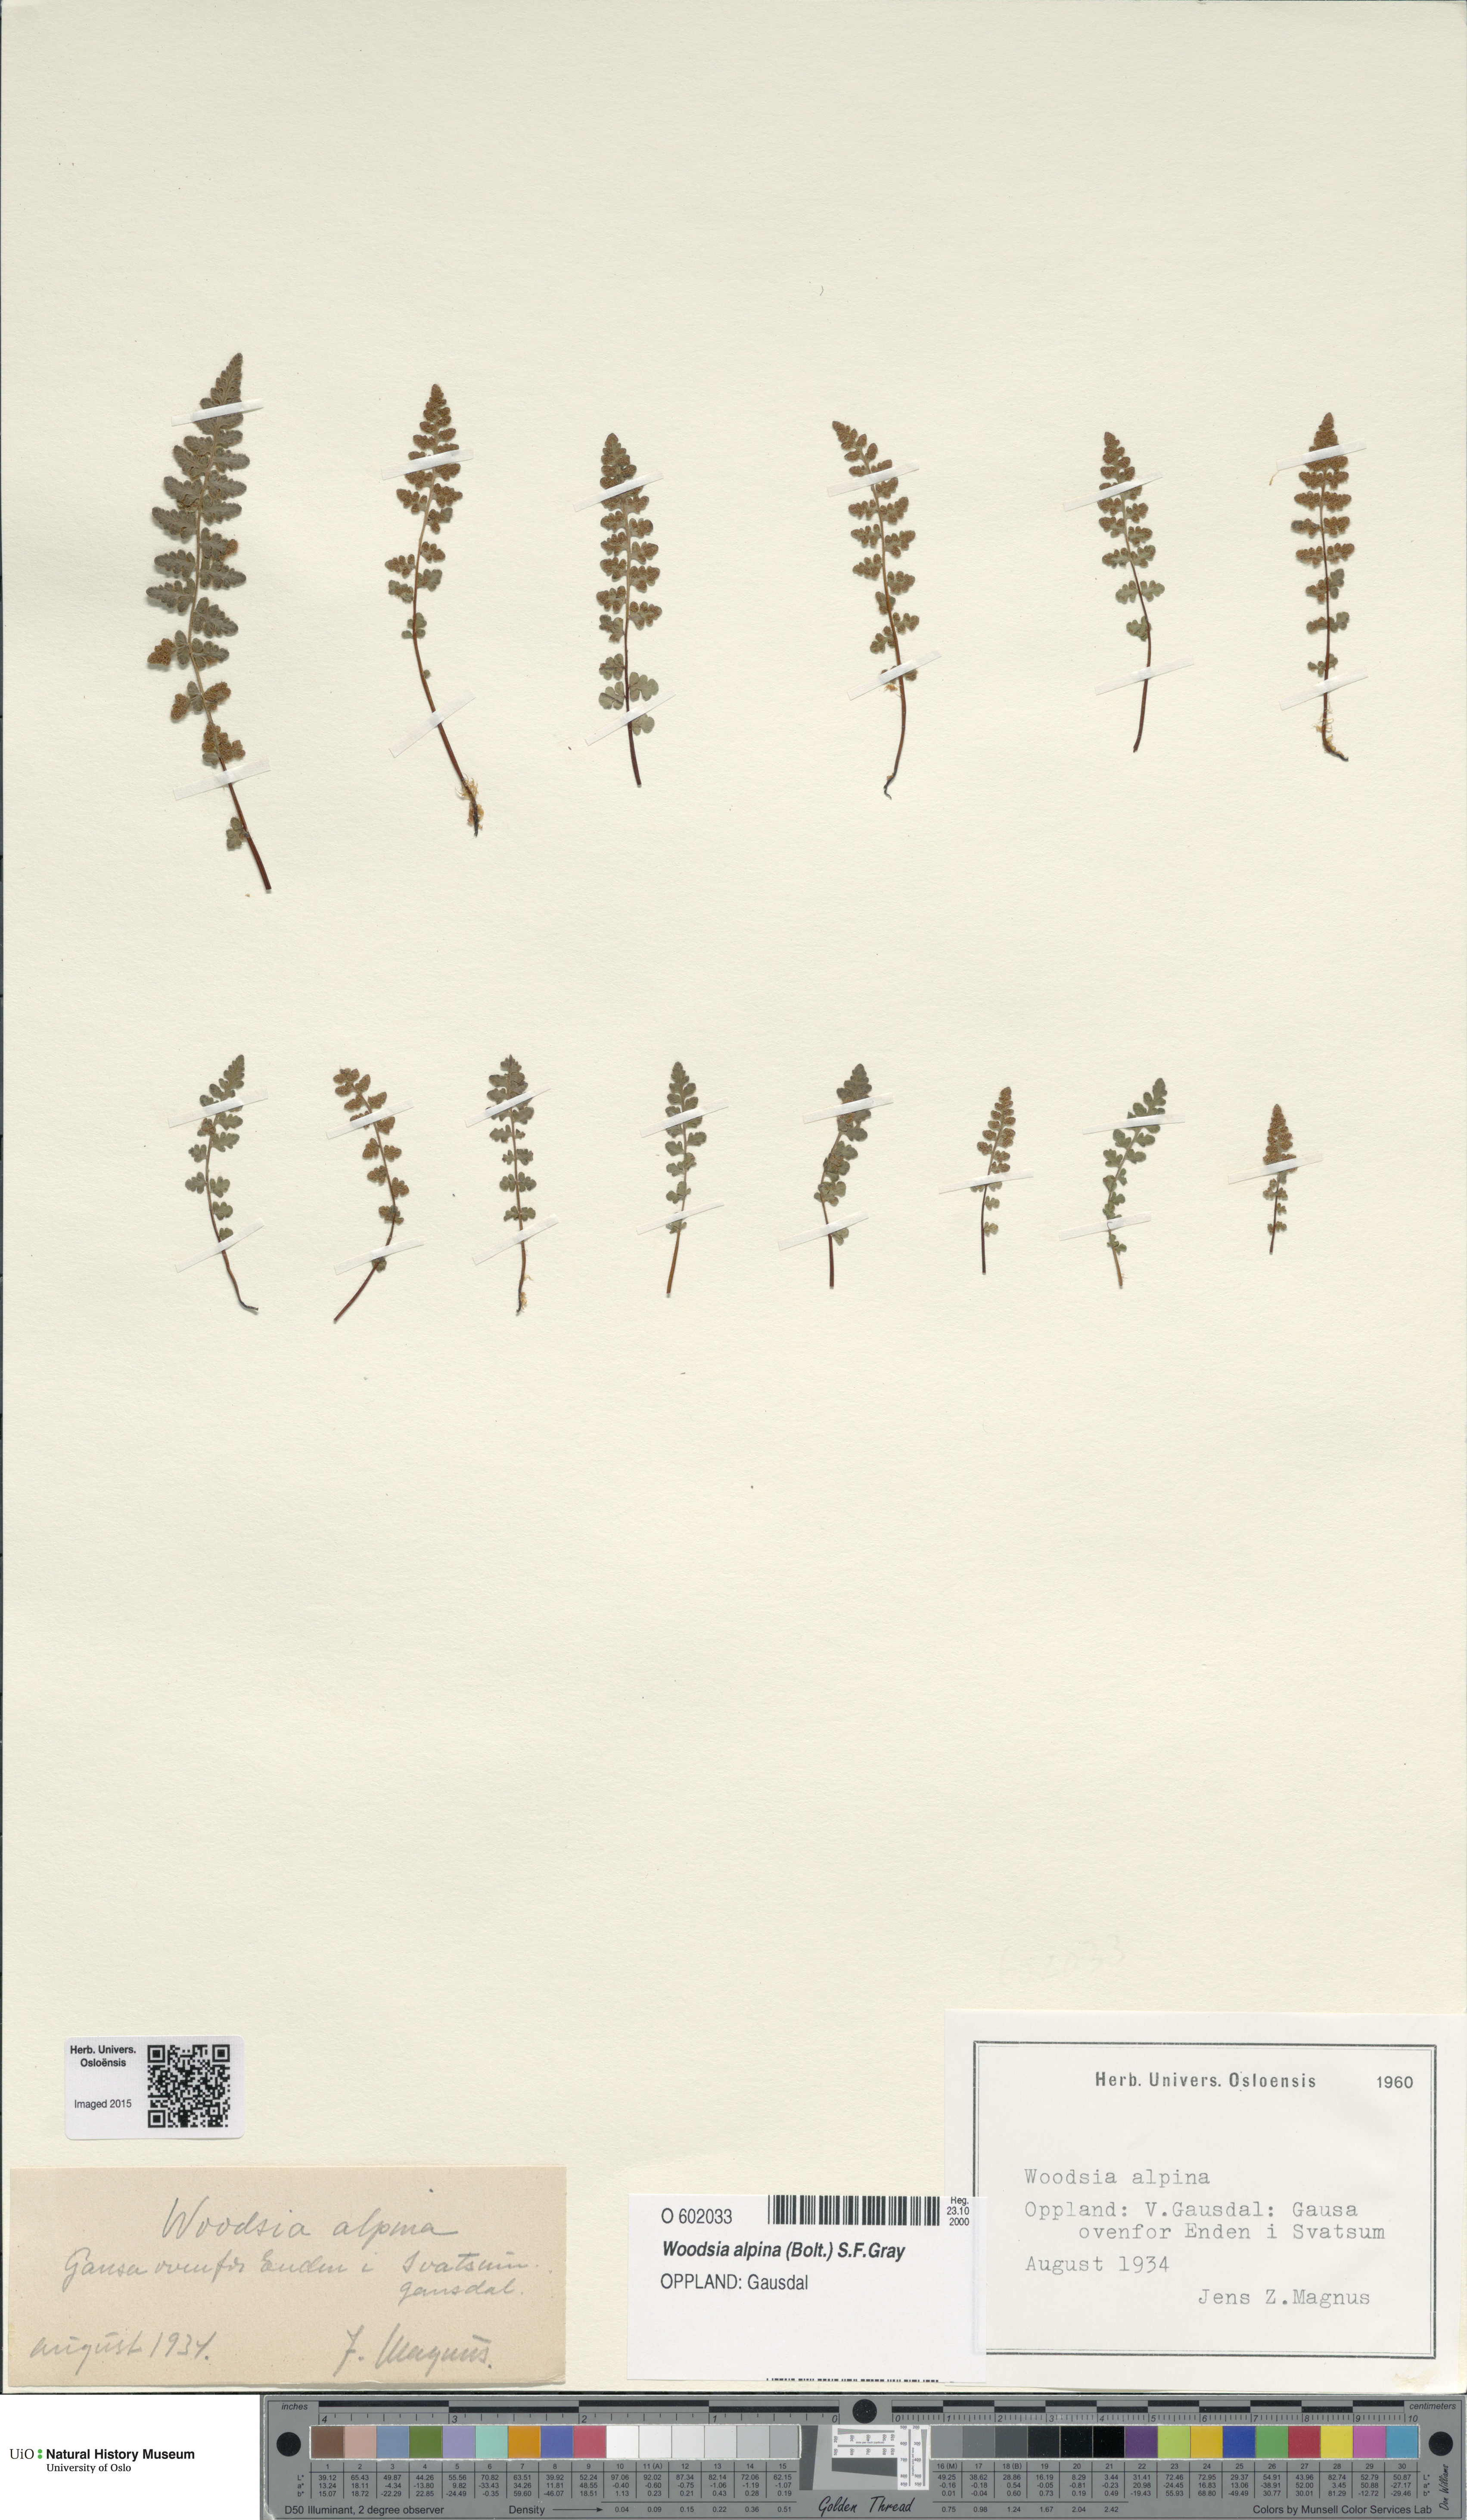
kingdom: Plantae
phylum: Tracheophyta
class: Polypodiopsida
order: Polypodiales
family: Woodsiaceae
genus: Woodsia
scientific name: Woodsia alpina
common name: Alpine woodsia
